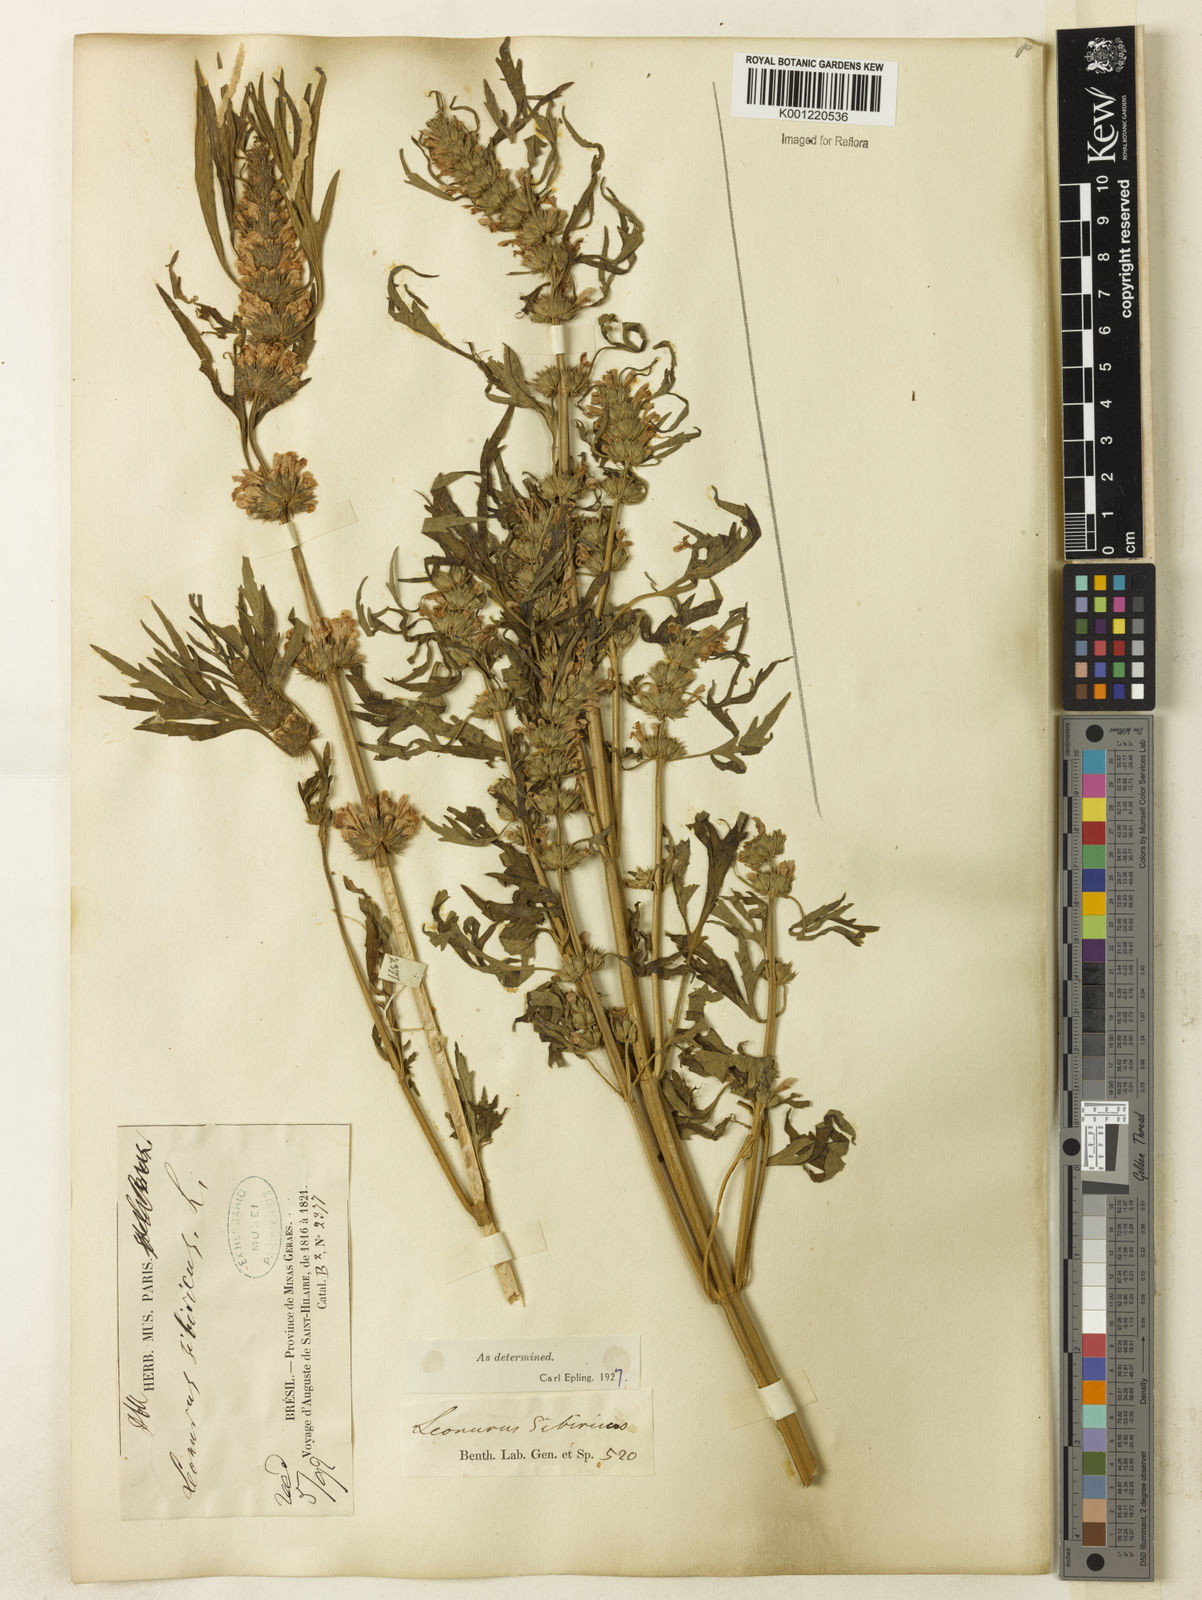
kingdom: Plantae
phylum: Tracheophyta
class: Magnoliopsida
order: Lamiales
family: Lamiaceae
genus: Leonurus
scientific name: Leonurus japonicus
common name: Honeyweed
